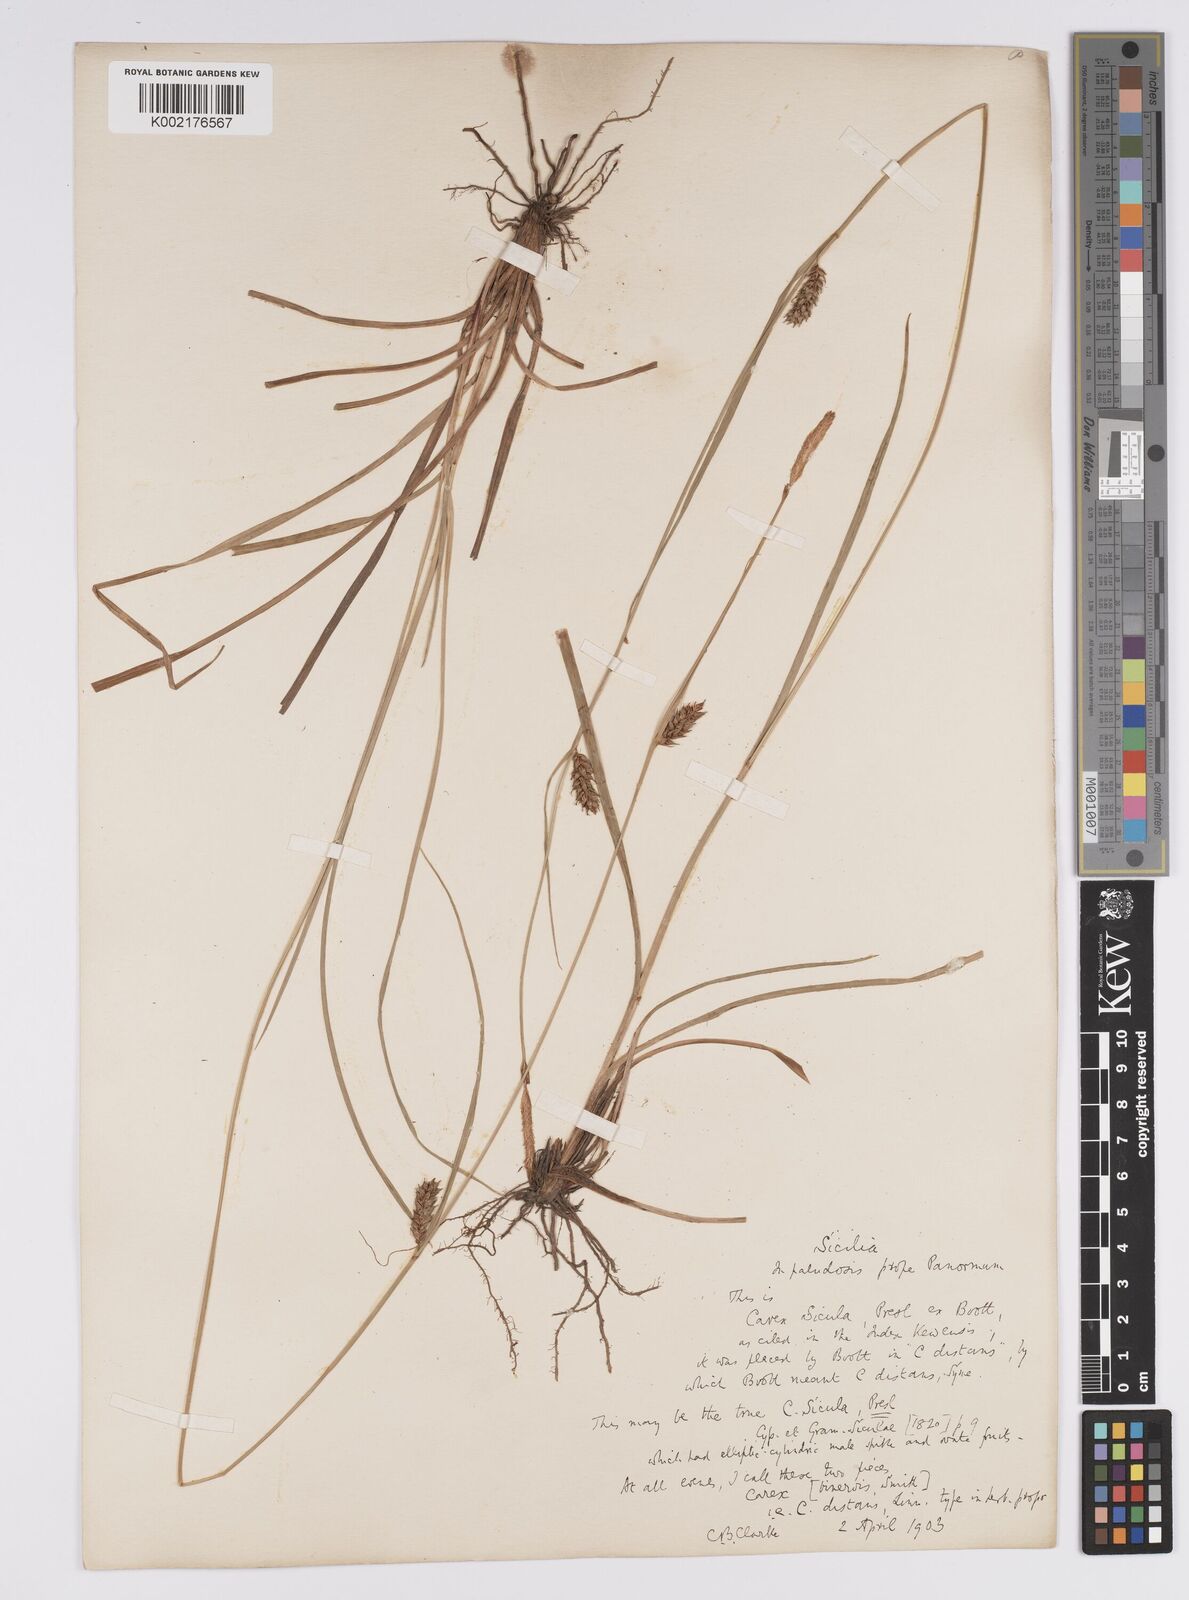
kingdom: Plantae
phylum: Tracheophyta
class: Liliopsida
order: Poales
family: Cyperaceae
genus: Carex
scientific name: Carex distans
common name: Distant sedge
